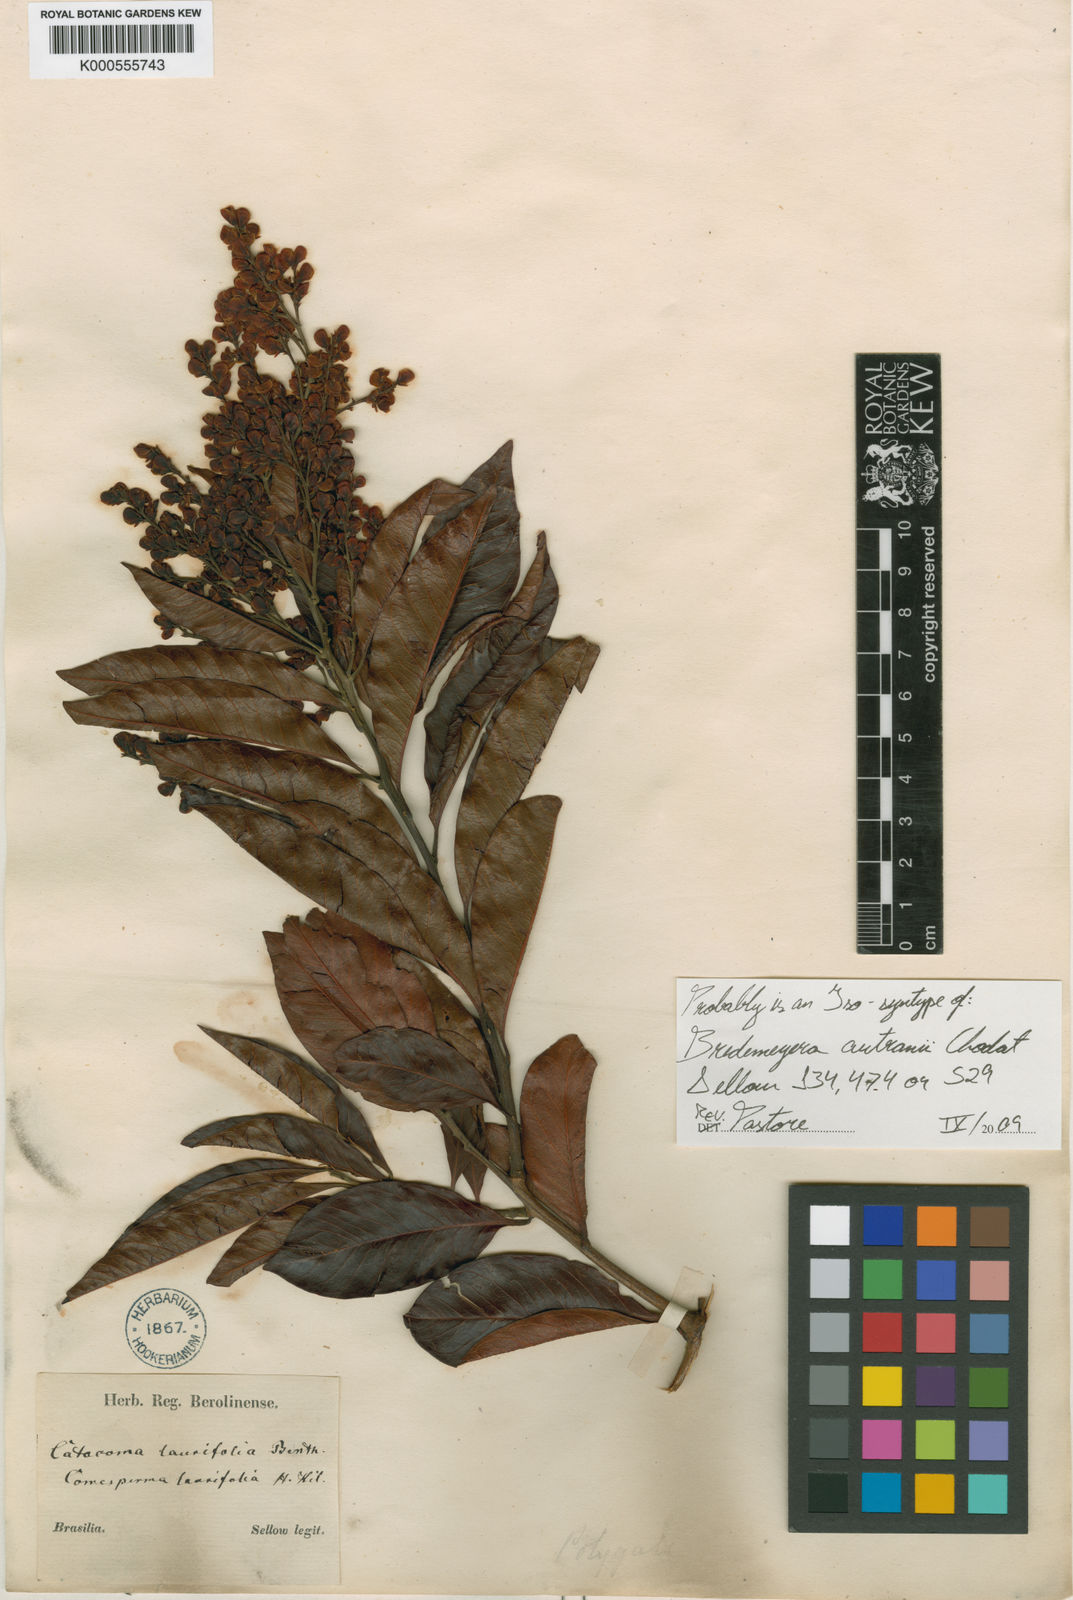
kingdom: Plantae
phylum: Tracheophyta
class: Magnoliopsida
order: Fabales
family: Polygalaceae
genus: Bredemeyera
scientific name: Bredemeyera disperma
